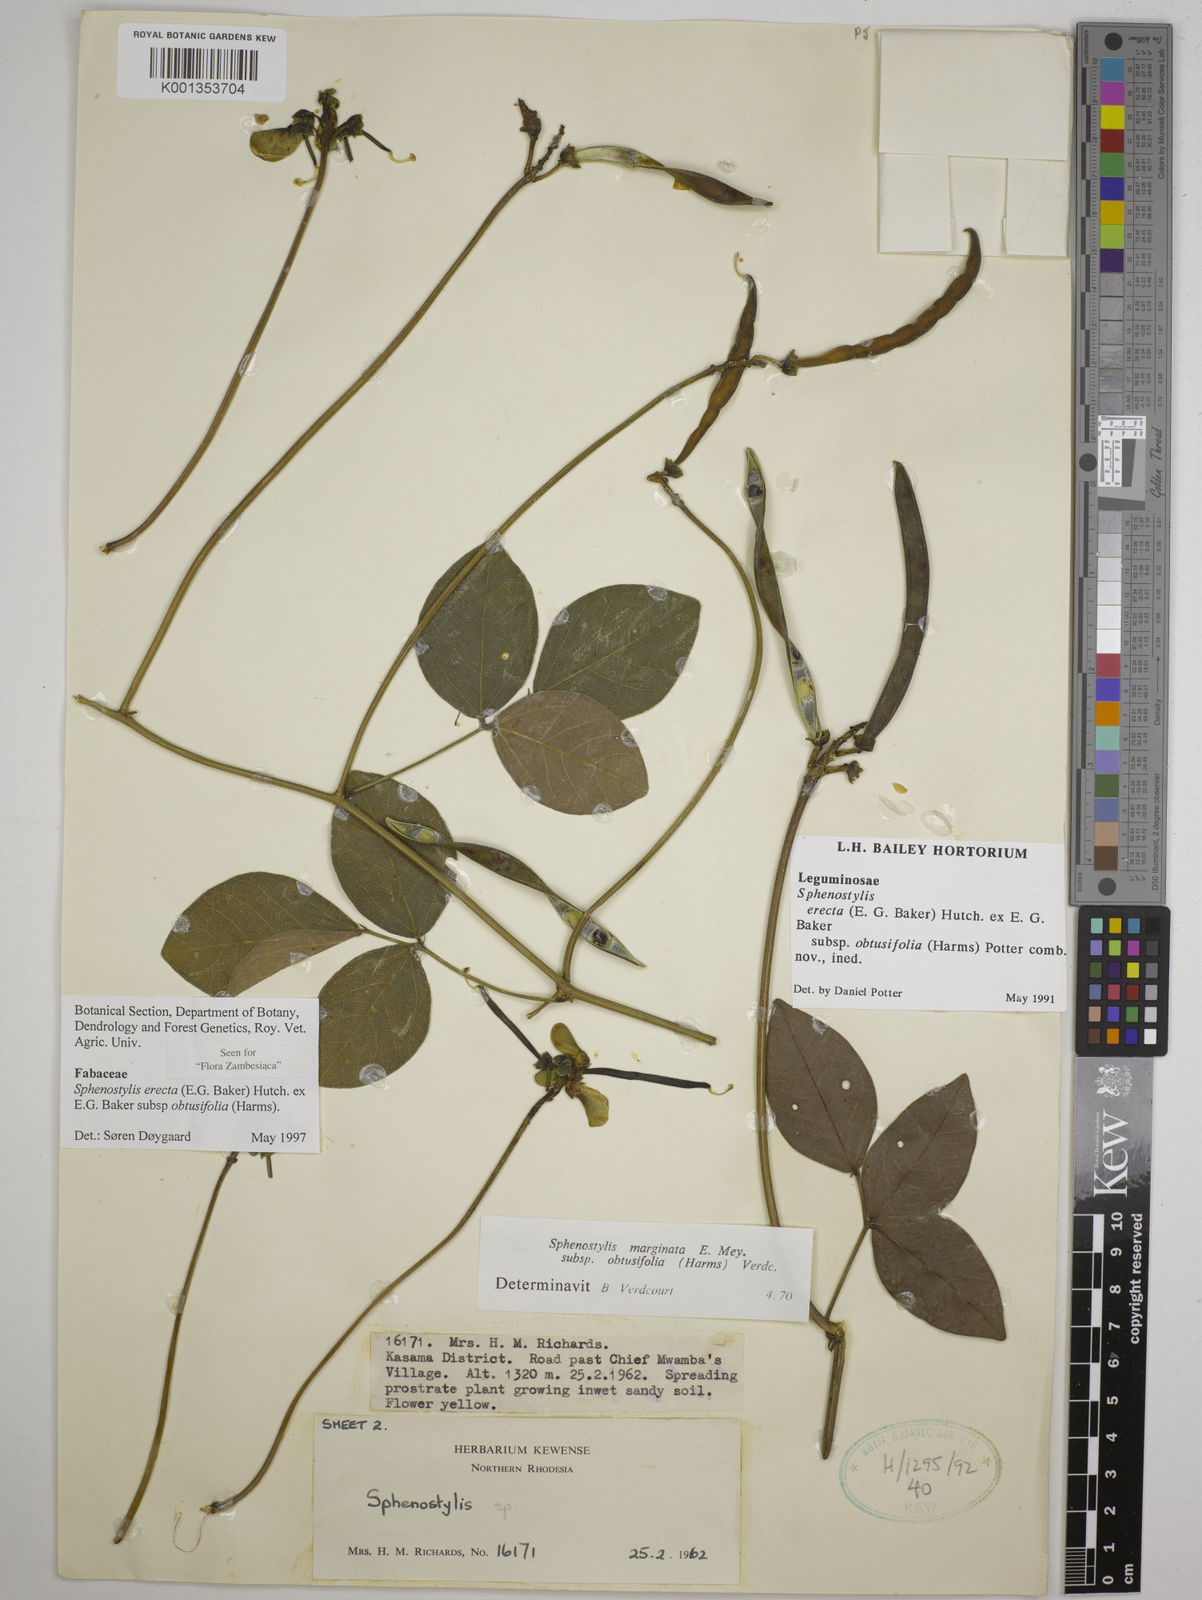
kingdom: Plantae
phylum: Tracheophyta
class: Magnoliopsida
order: Fabales
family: Fabaceae
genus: Sphenostylis
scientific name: Sphenostylis
